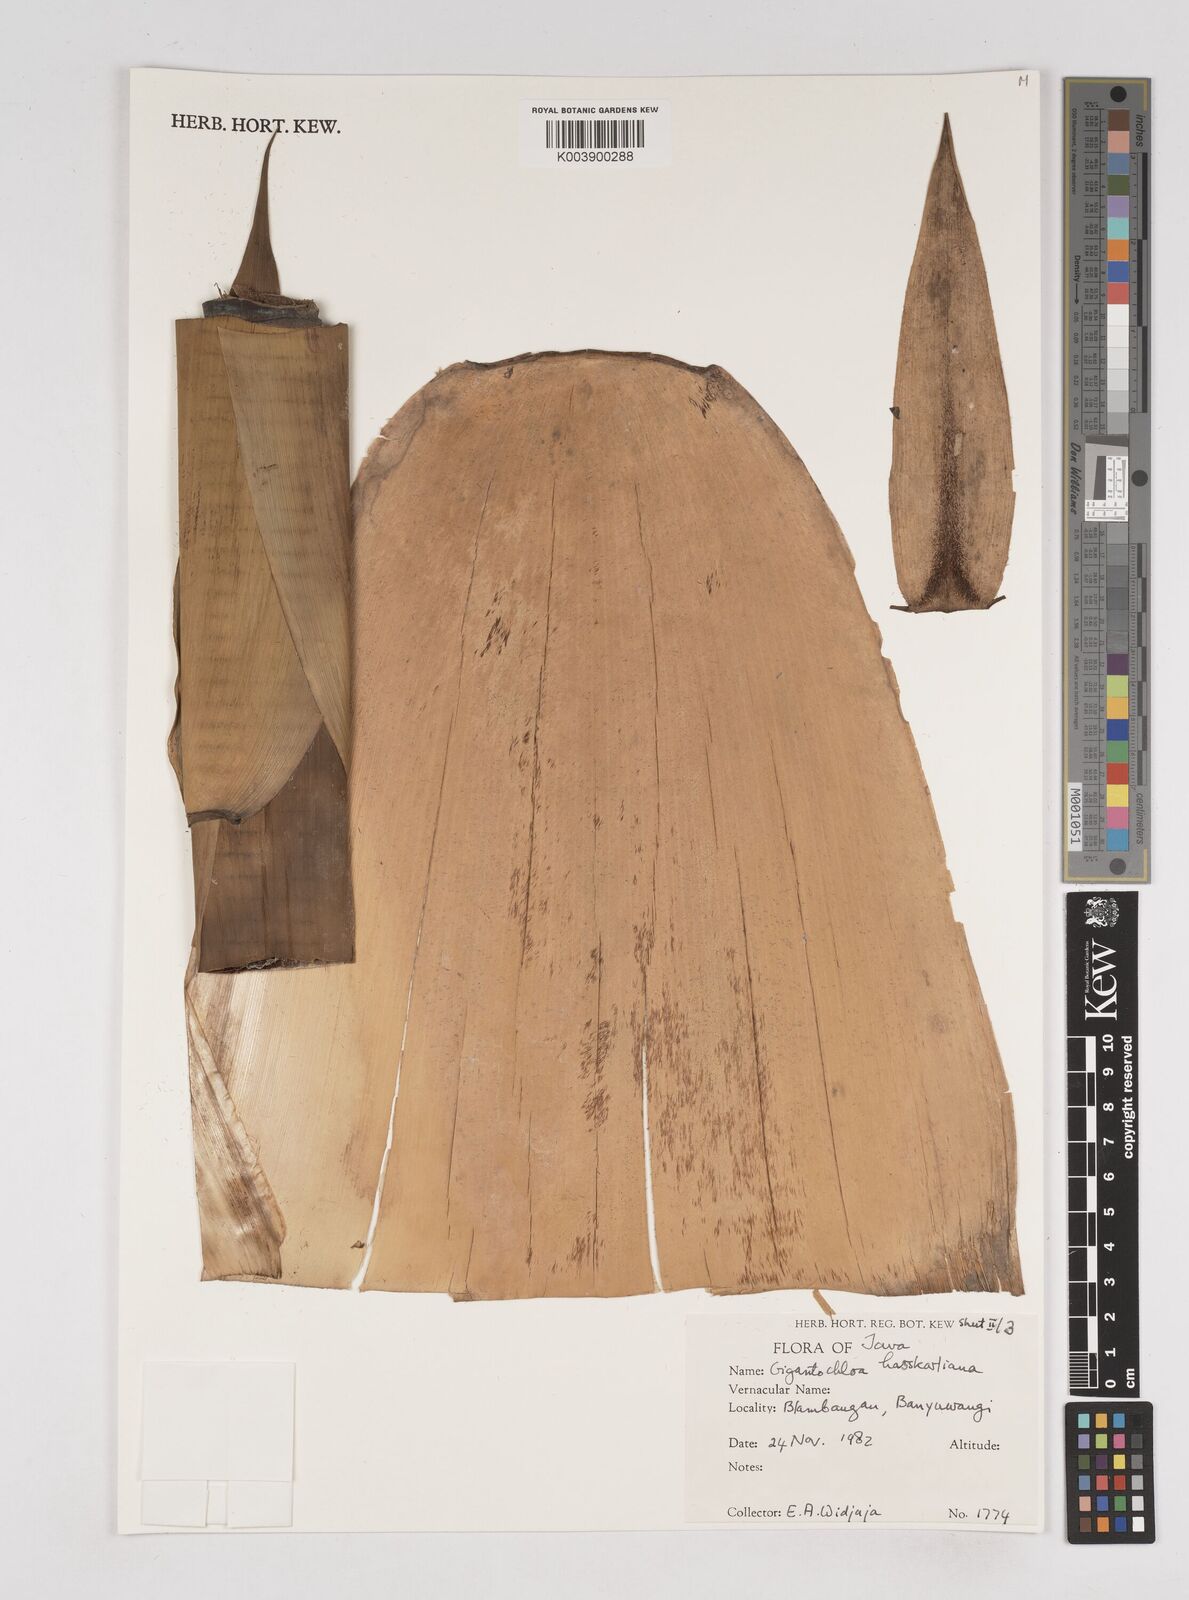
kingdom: Plantae
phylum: Tracheophyta
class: Liliopsida
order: Poales
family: Poaceae
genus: Gigantochloa
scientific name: Gigantochloa hasskarliana
